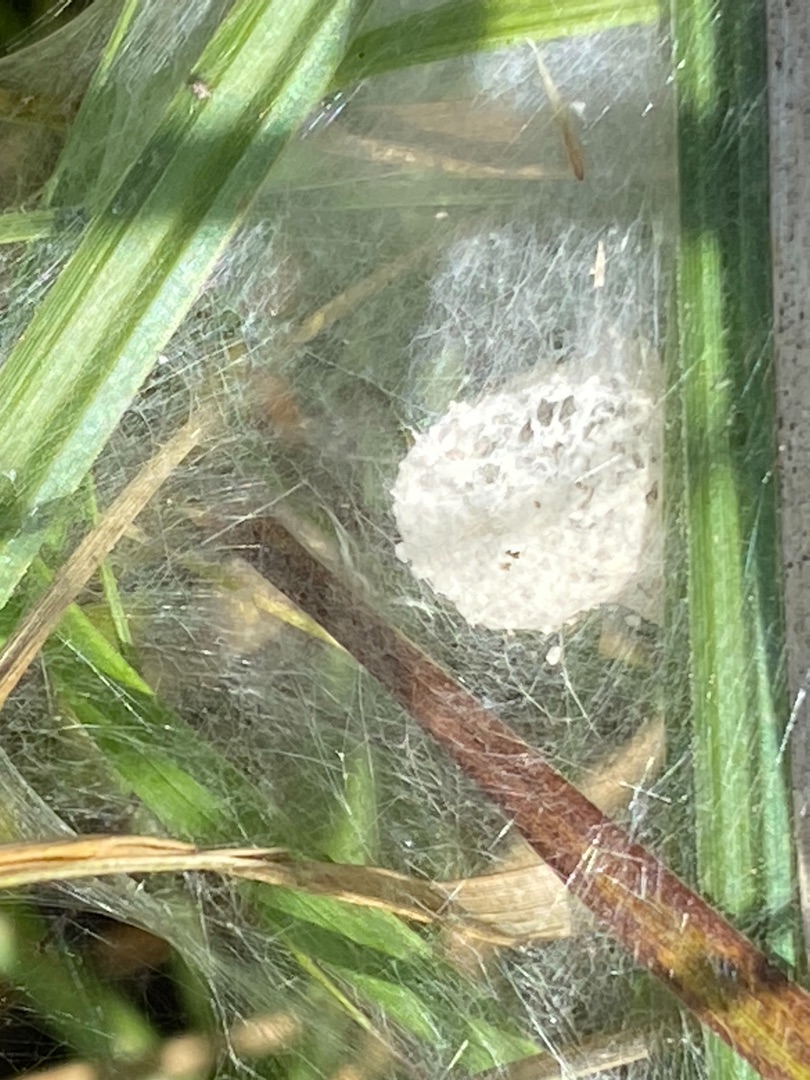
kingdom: Animalia
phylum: Arthropoda
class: Arachnida
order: Araneae
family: Pisauridae
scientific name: Pisauridae
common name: Rovedderkopper
